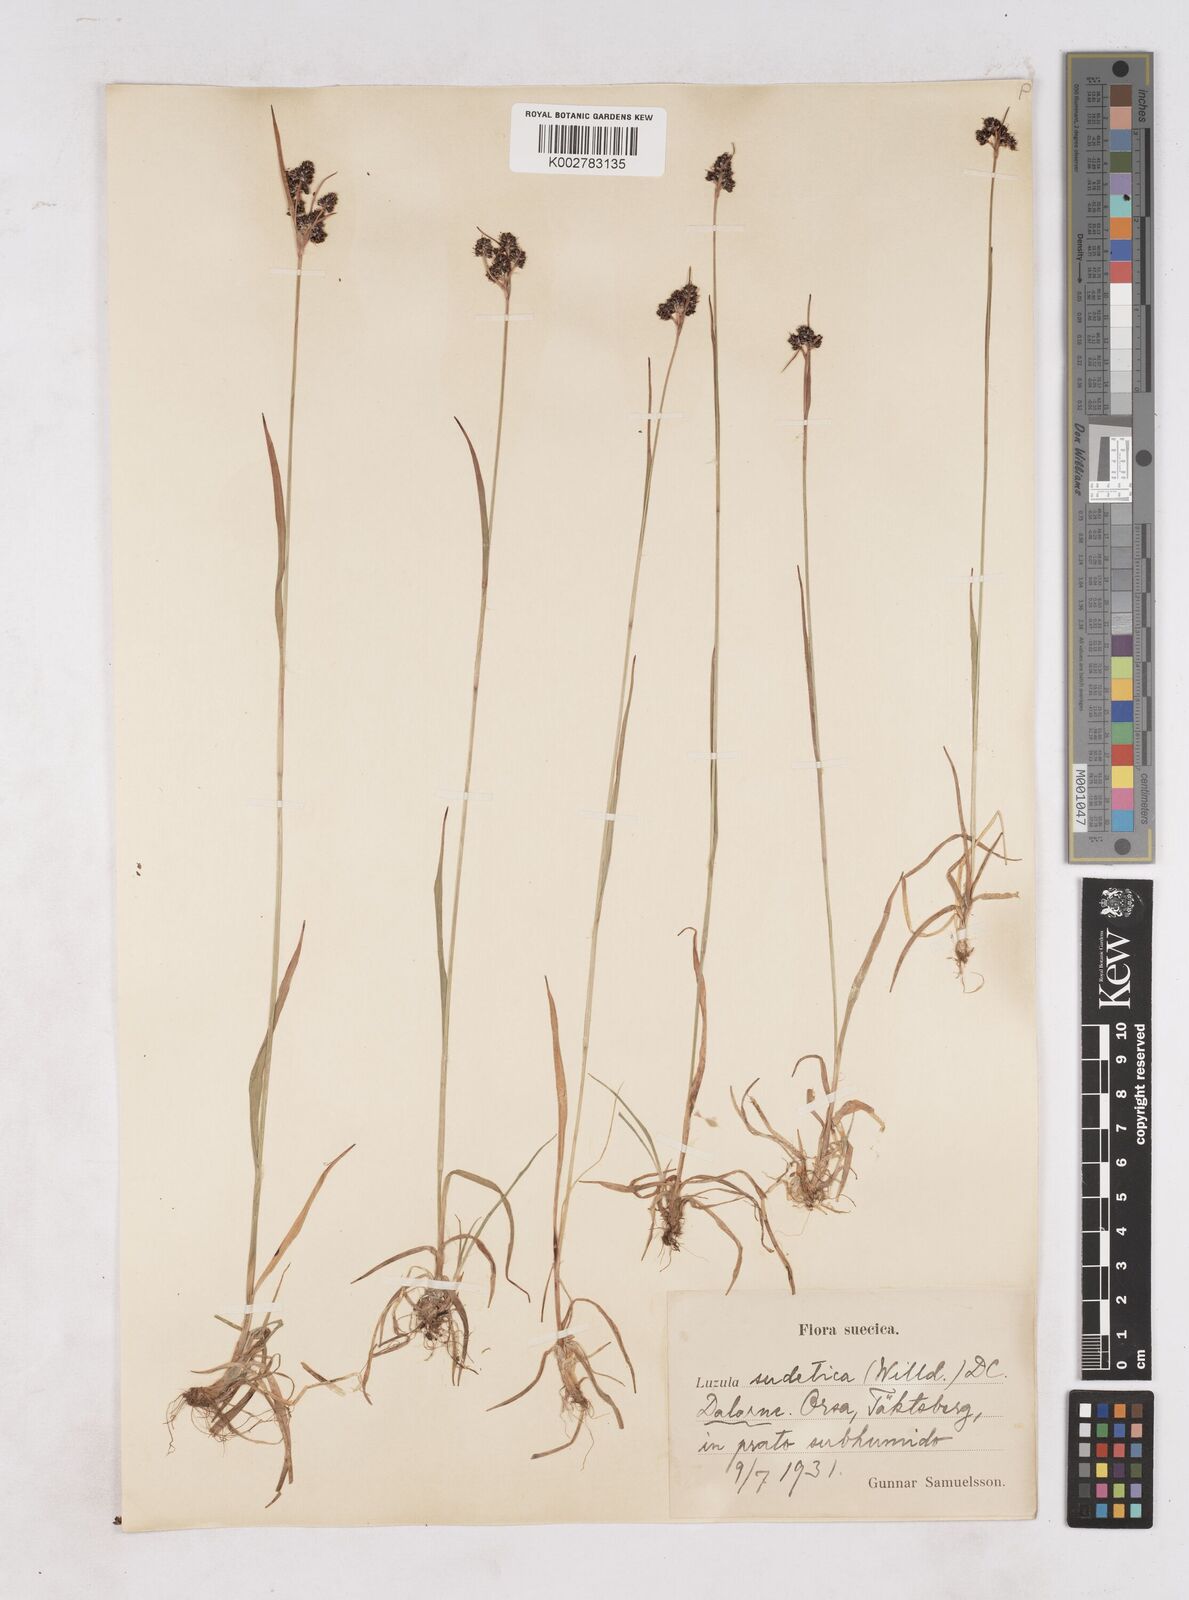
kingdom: Plantae
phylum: Tracheophyta
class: Liliopsida
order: Poales
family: Juncaceae
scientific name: Juncaceae
